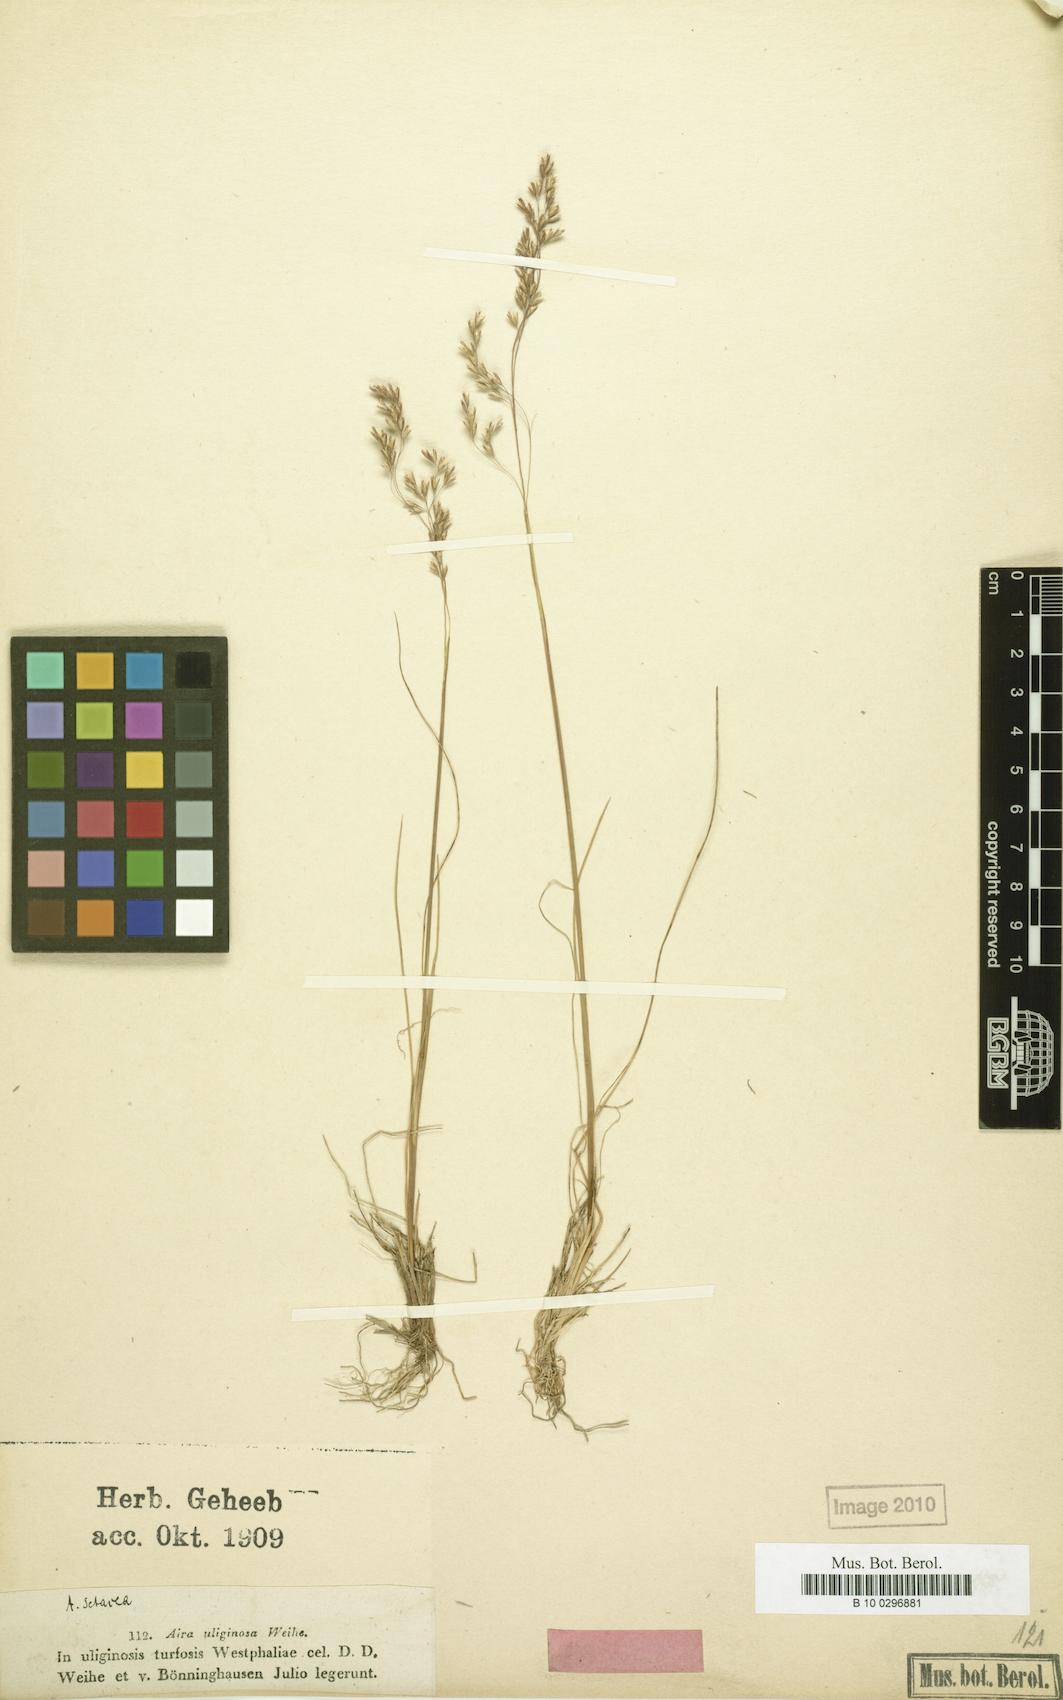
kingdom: Plantae
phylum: Tracheophyta
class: Liliopsida
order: Poales
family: Poaceae
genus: Deschampsia
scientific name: Deschampsia setacea
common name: Bog hair-grass
